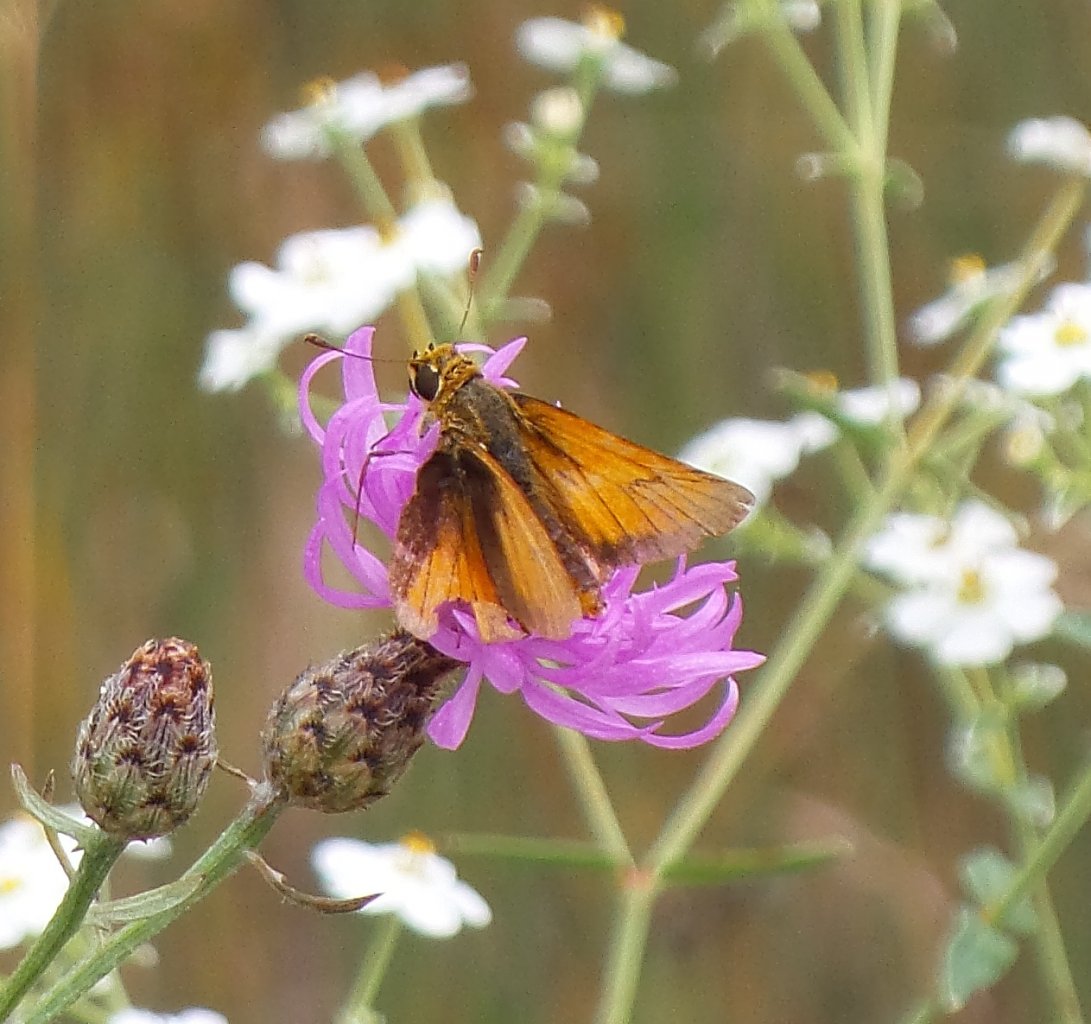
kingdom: Animalia
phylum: Arthropoda
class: Insecta
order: Lepidoptera
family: Hesperiidae
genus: Atrytone
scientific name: Atrytone delaware
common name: Delaware Skipper
